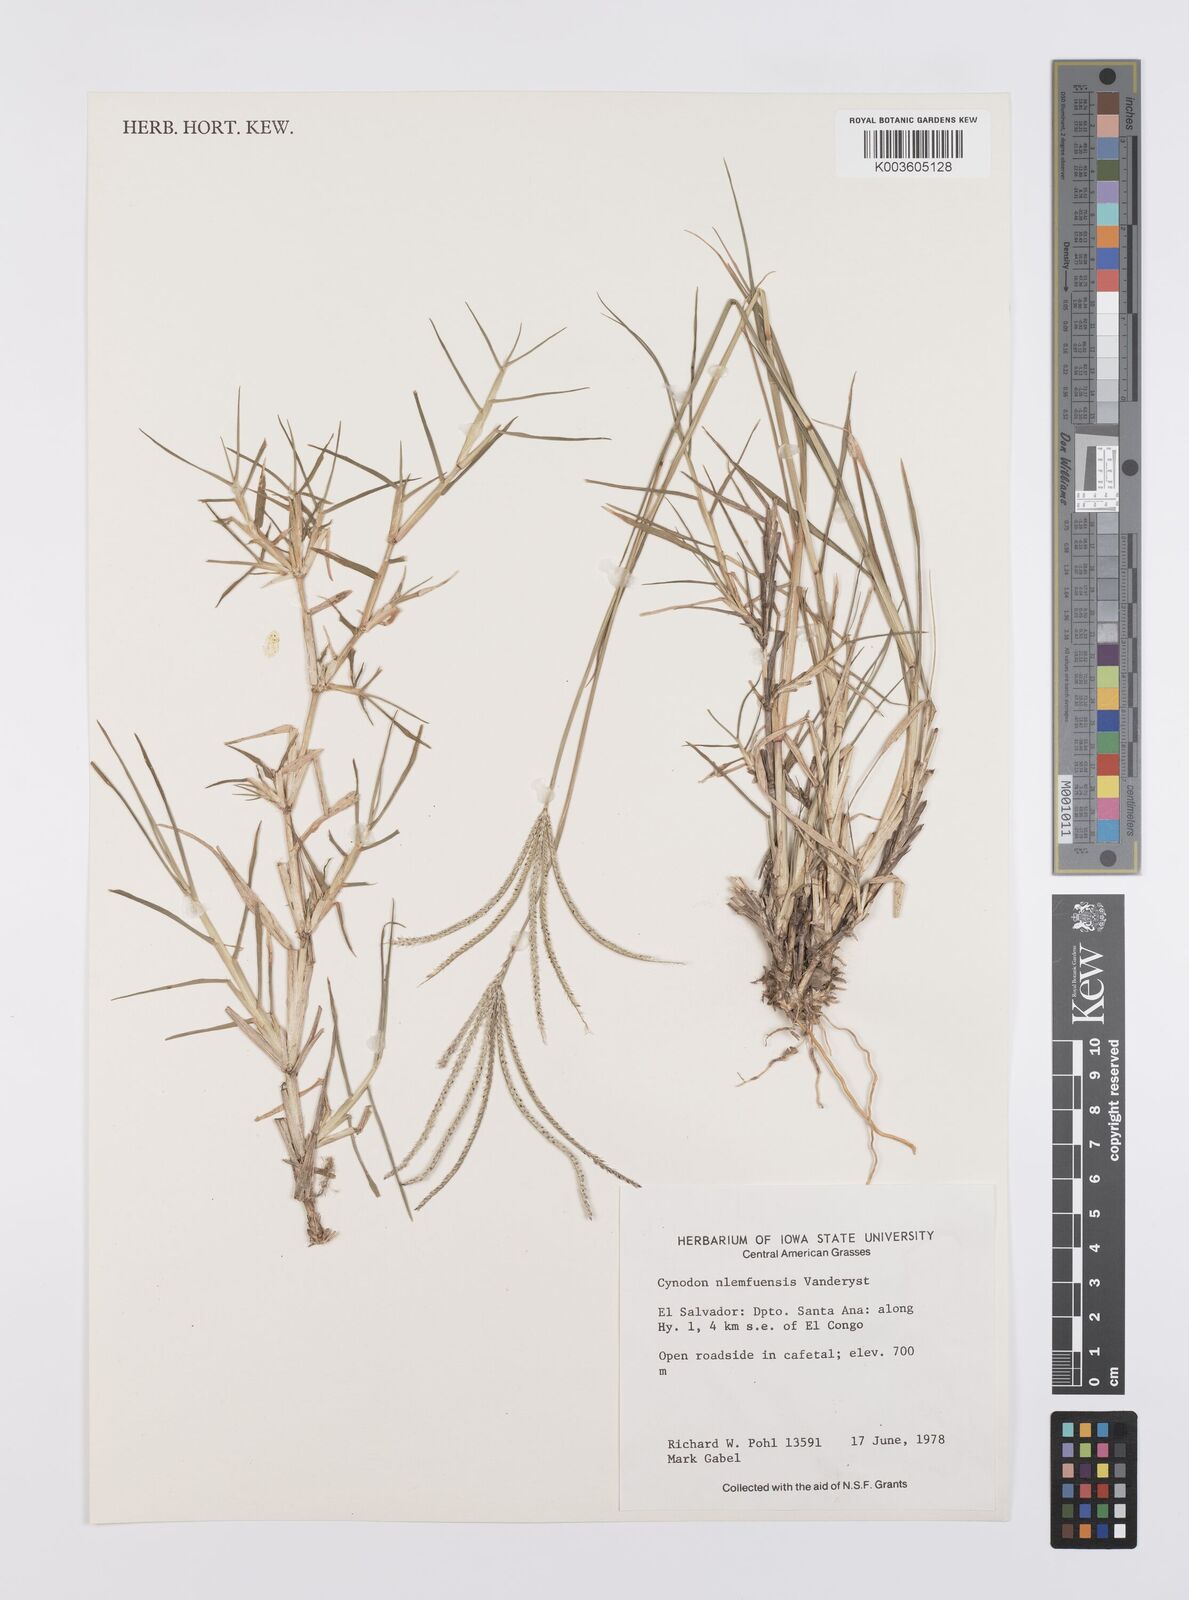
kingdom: Plantae
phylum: Tracheophyta
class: Liliopsida
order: Poales
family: Poaceae
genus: Cynodon
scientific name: Cynodon nlemfuensis
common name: African bermudagrass
